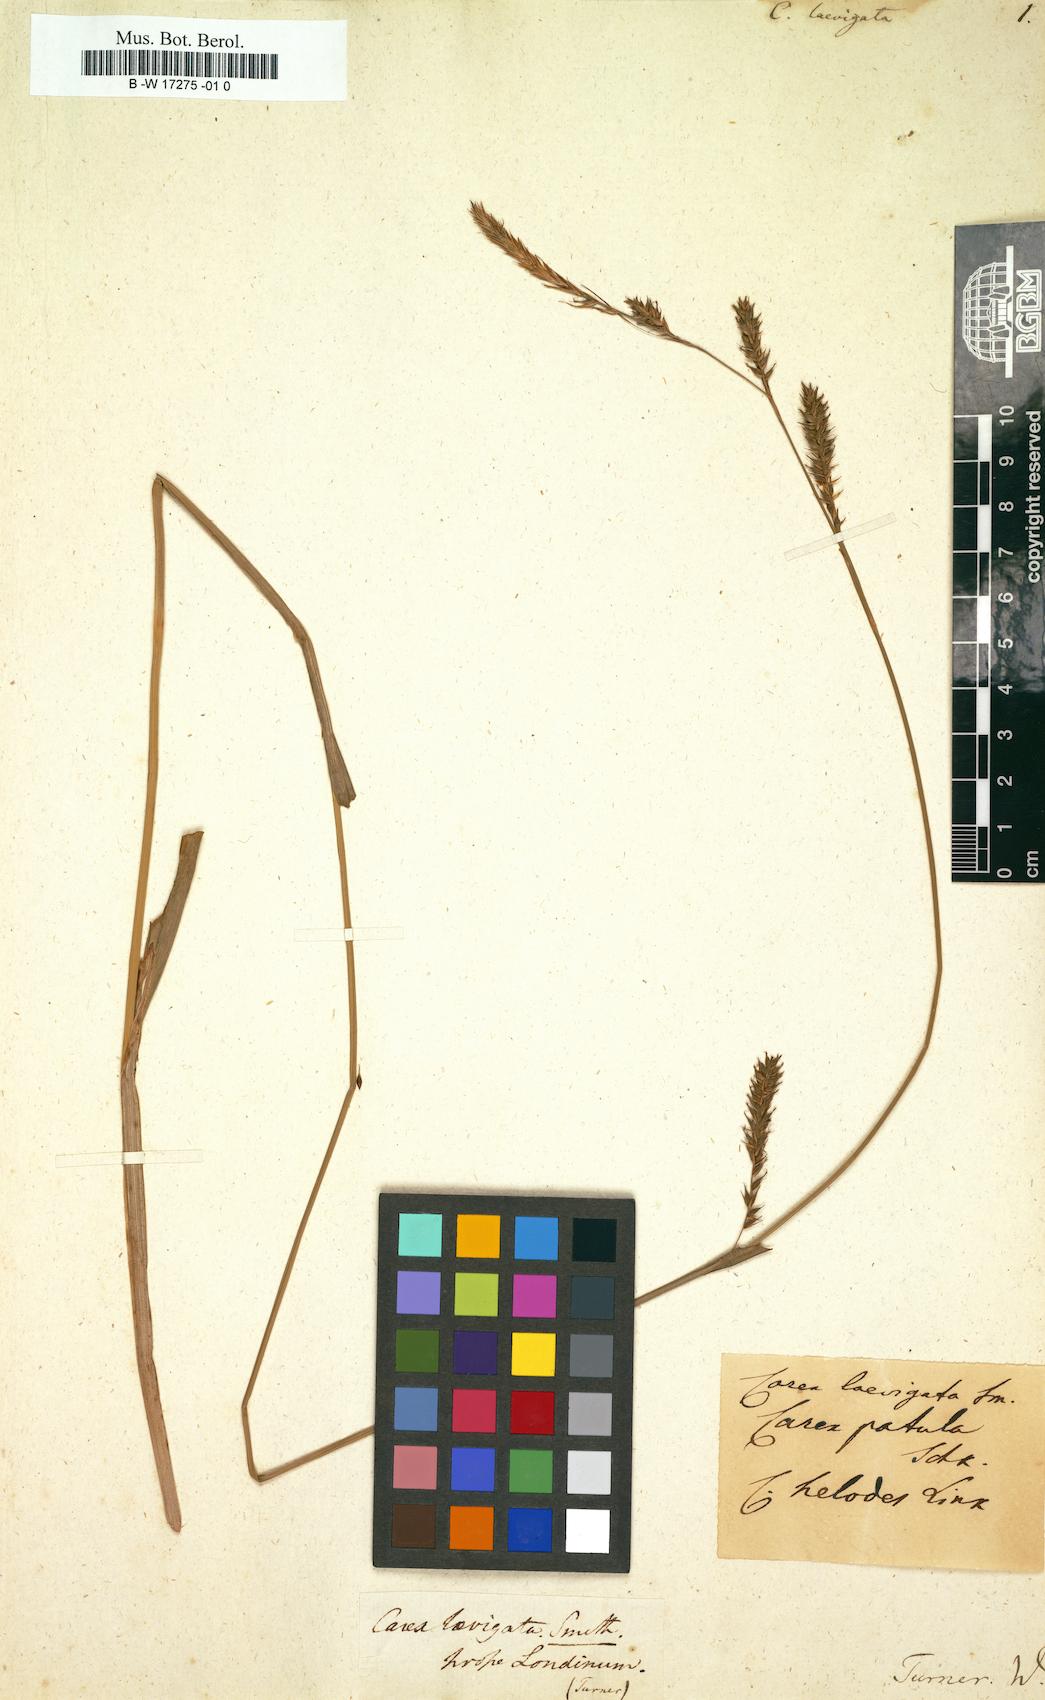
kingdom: Plantae
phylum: Tracheophyta
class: Liliopsida
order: Poales
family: Cyperaceae
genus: Carex
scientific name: Carex laevigata
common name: Smooth-stalked sedge
